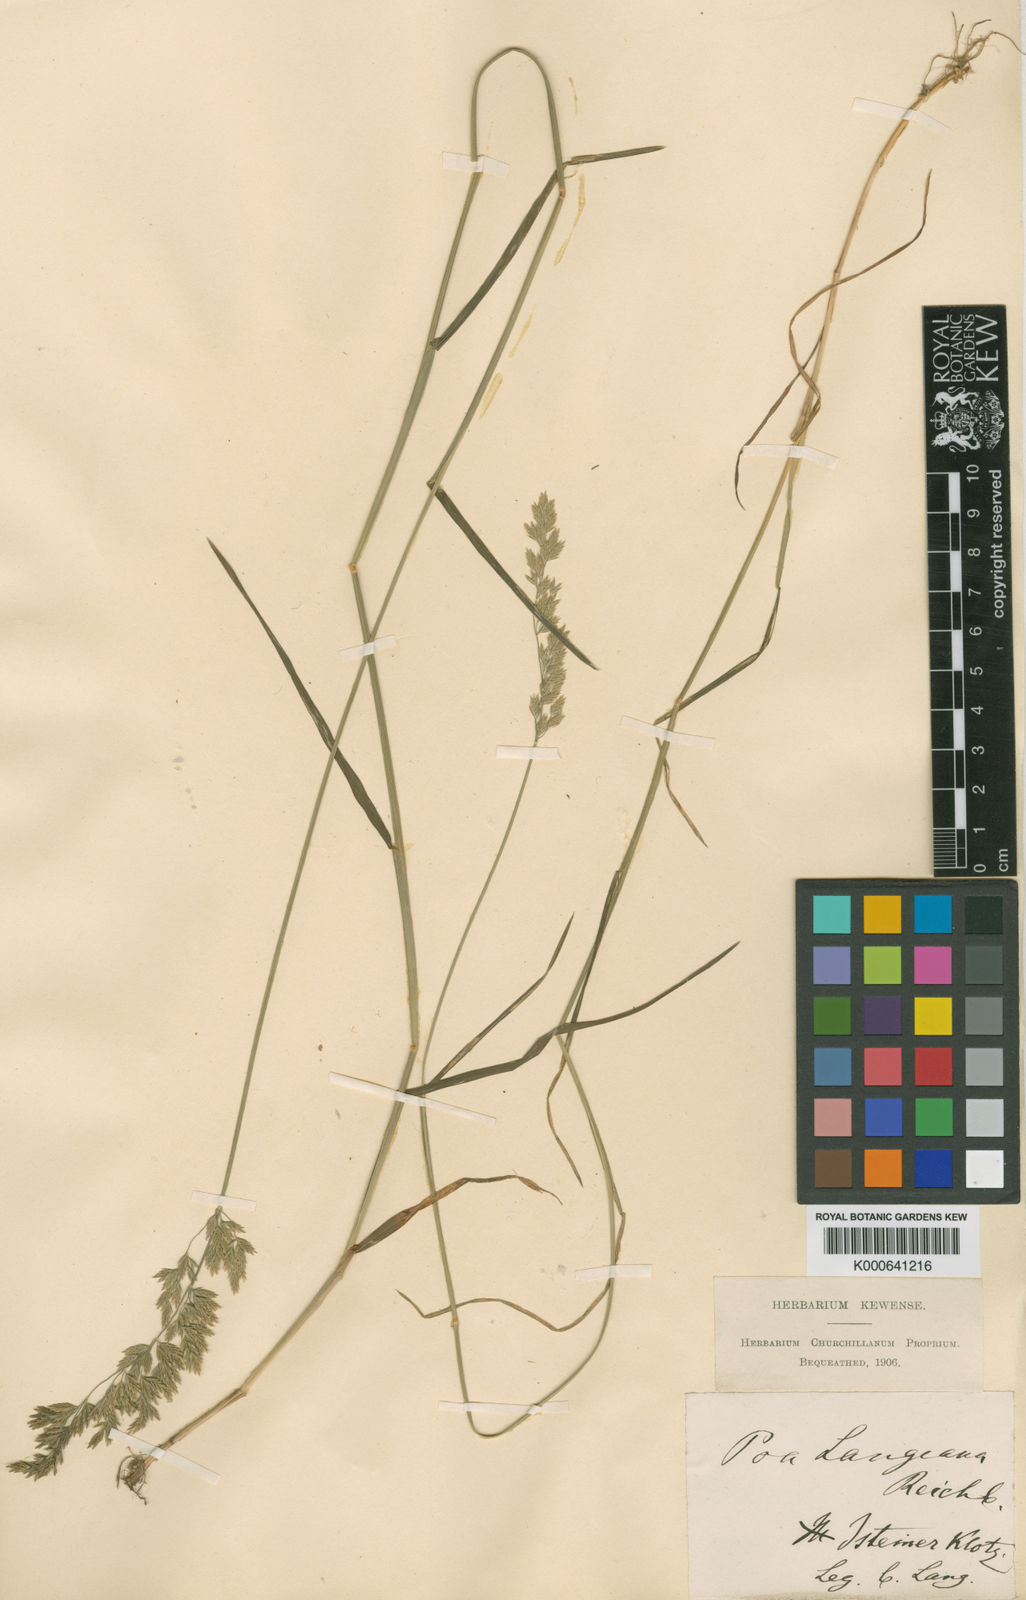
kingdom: Plantae
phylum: Tracheophyta
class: Liliopsida
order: Poales
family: Poaceae
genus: Poa
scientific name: Poa compressa
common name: Canada bluegrass
